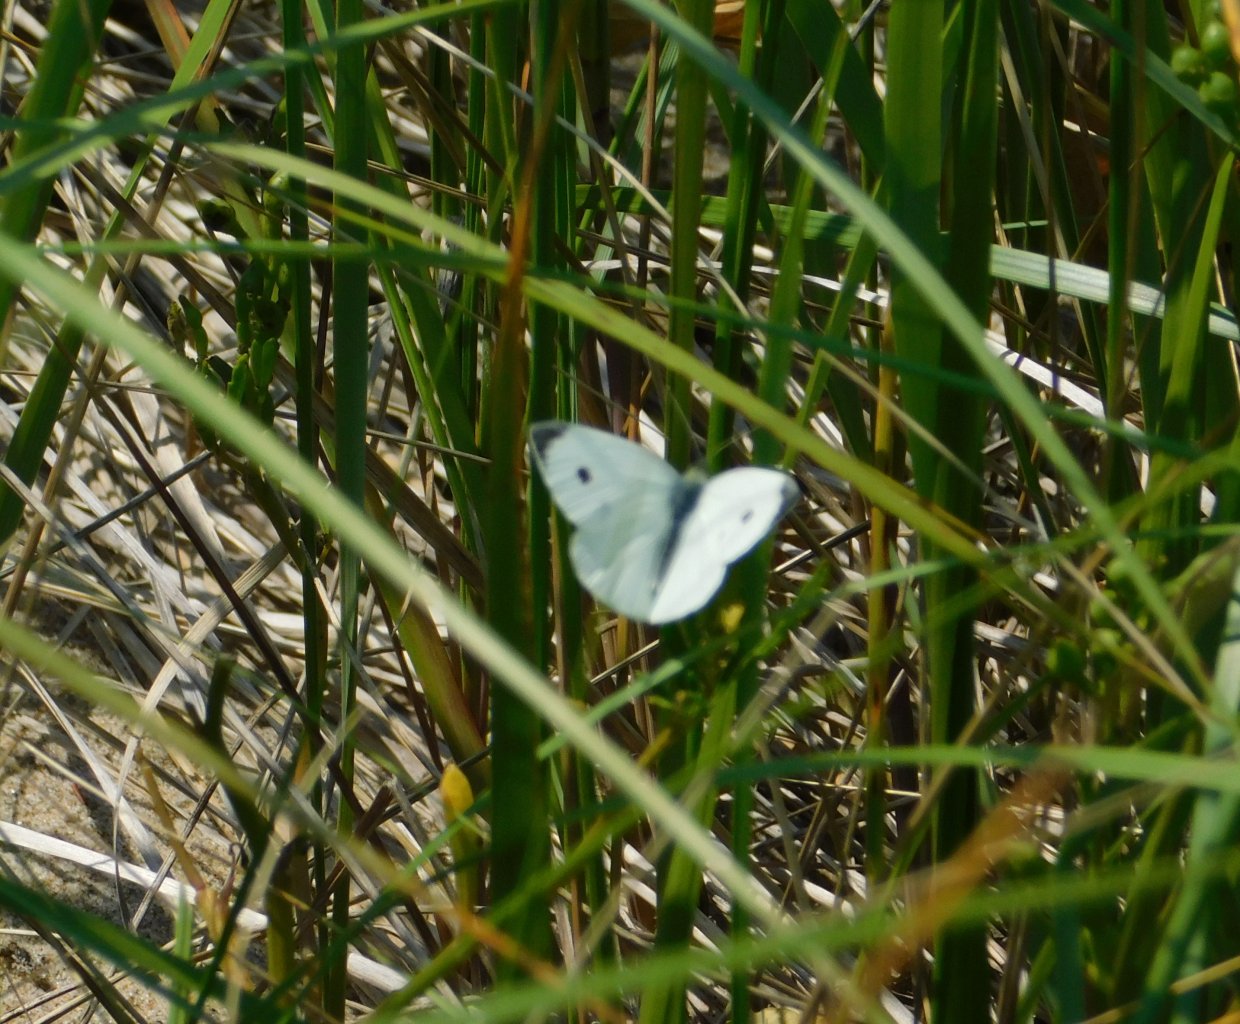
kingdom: Animalia
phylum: Arthropoda
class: Insecta
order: Lepidoptera
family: Pieridae
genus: Pieris
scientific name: Pieris rapae
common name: Cabbage White
